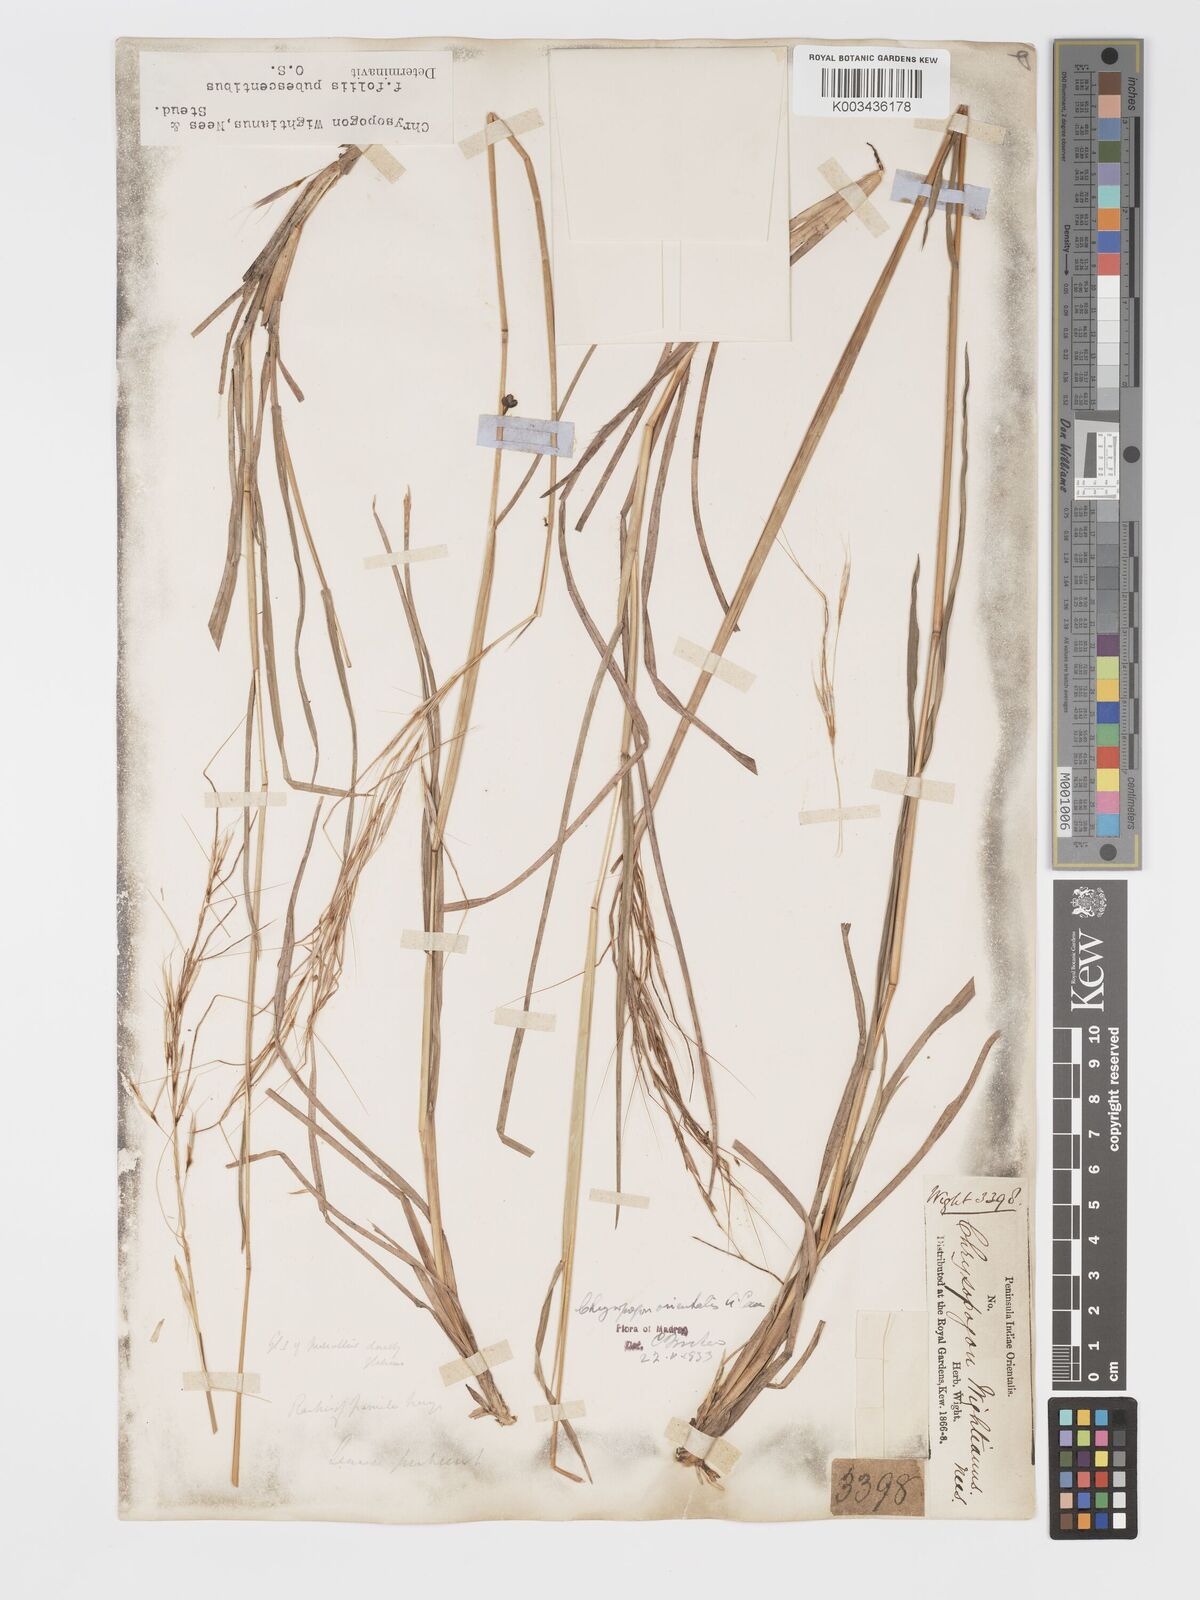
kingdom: Plantae
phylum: Tracheophyta
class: Liliopsida
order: Poales
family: Poaceae
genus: Chrysopogon
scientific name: Chrysopogon orientalis
